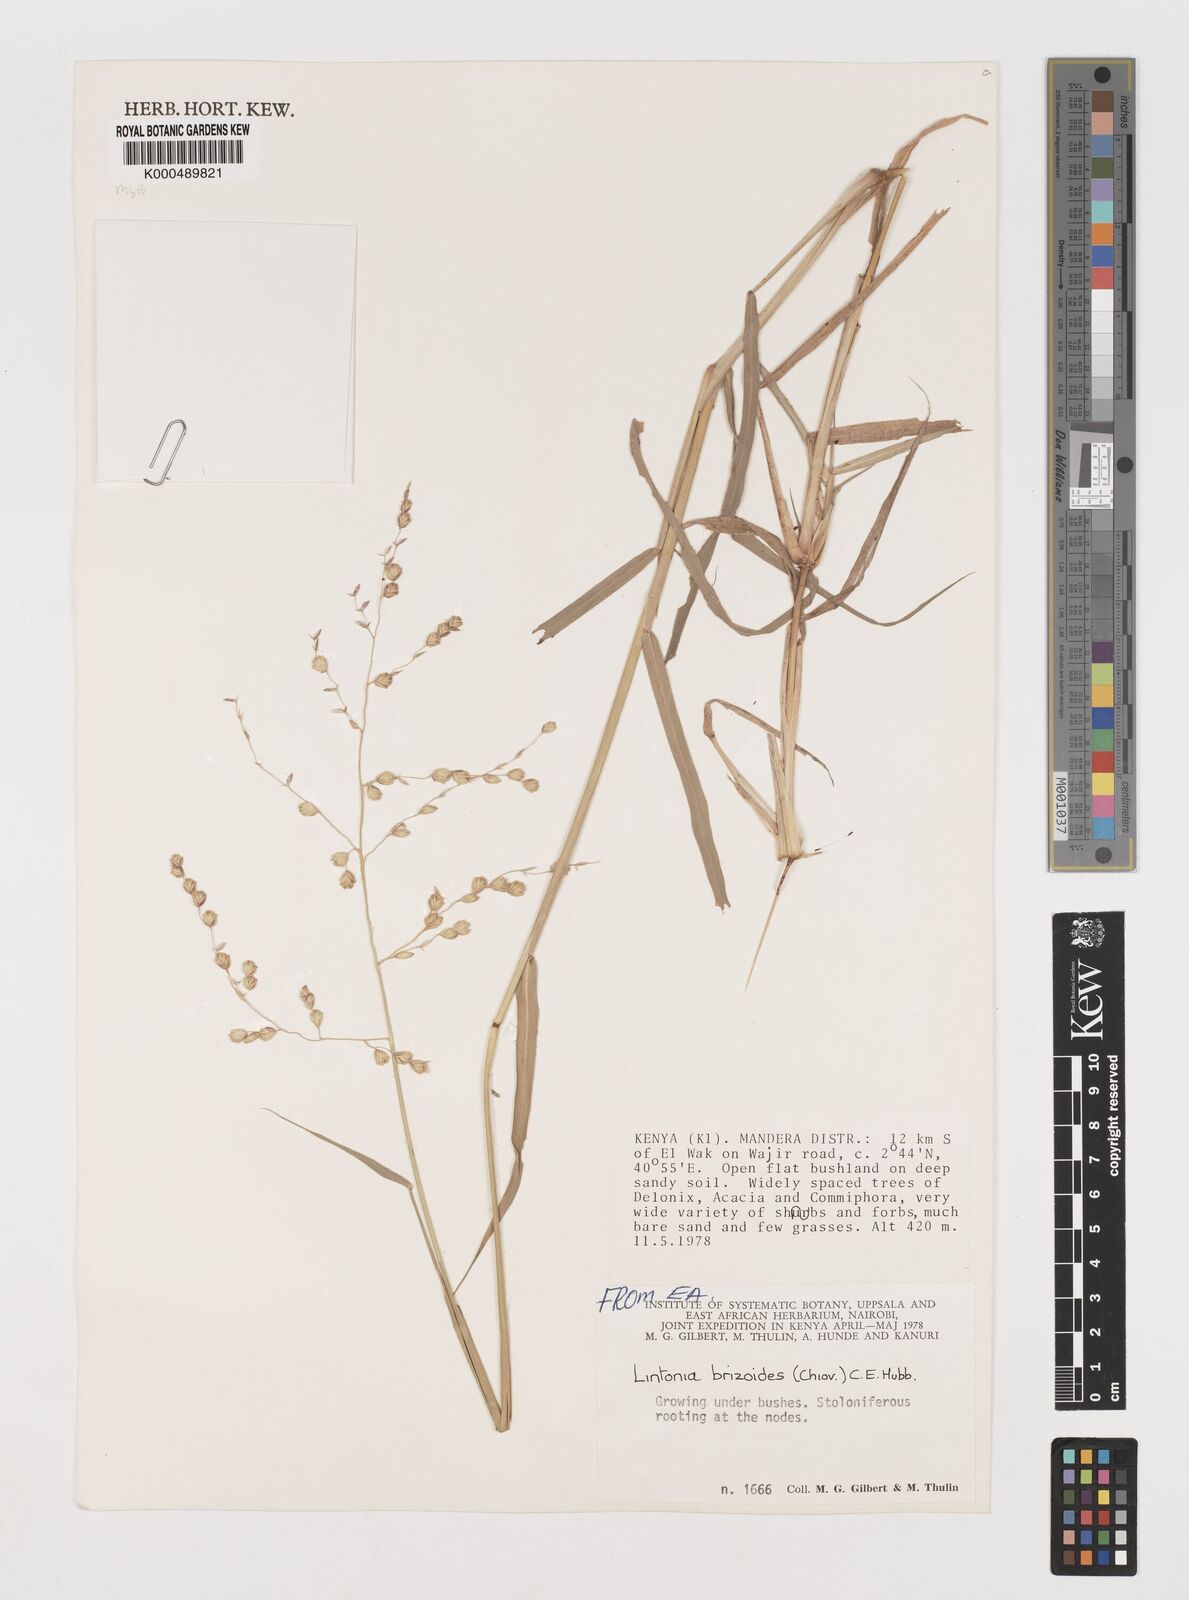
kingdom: Plantae
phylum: Tracheophyta
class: Liliopsida
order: Poales
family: Poaceae
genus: Chloris
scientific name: Chloris Lintonia brizoides
